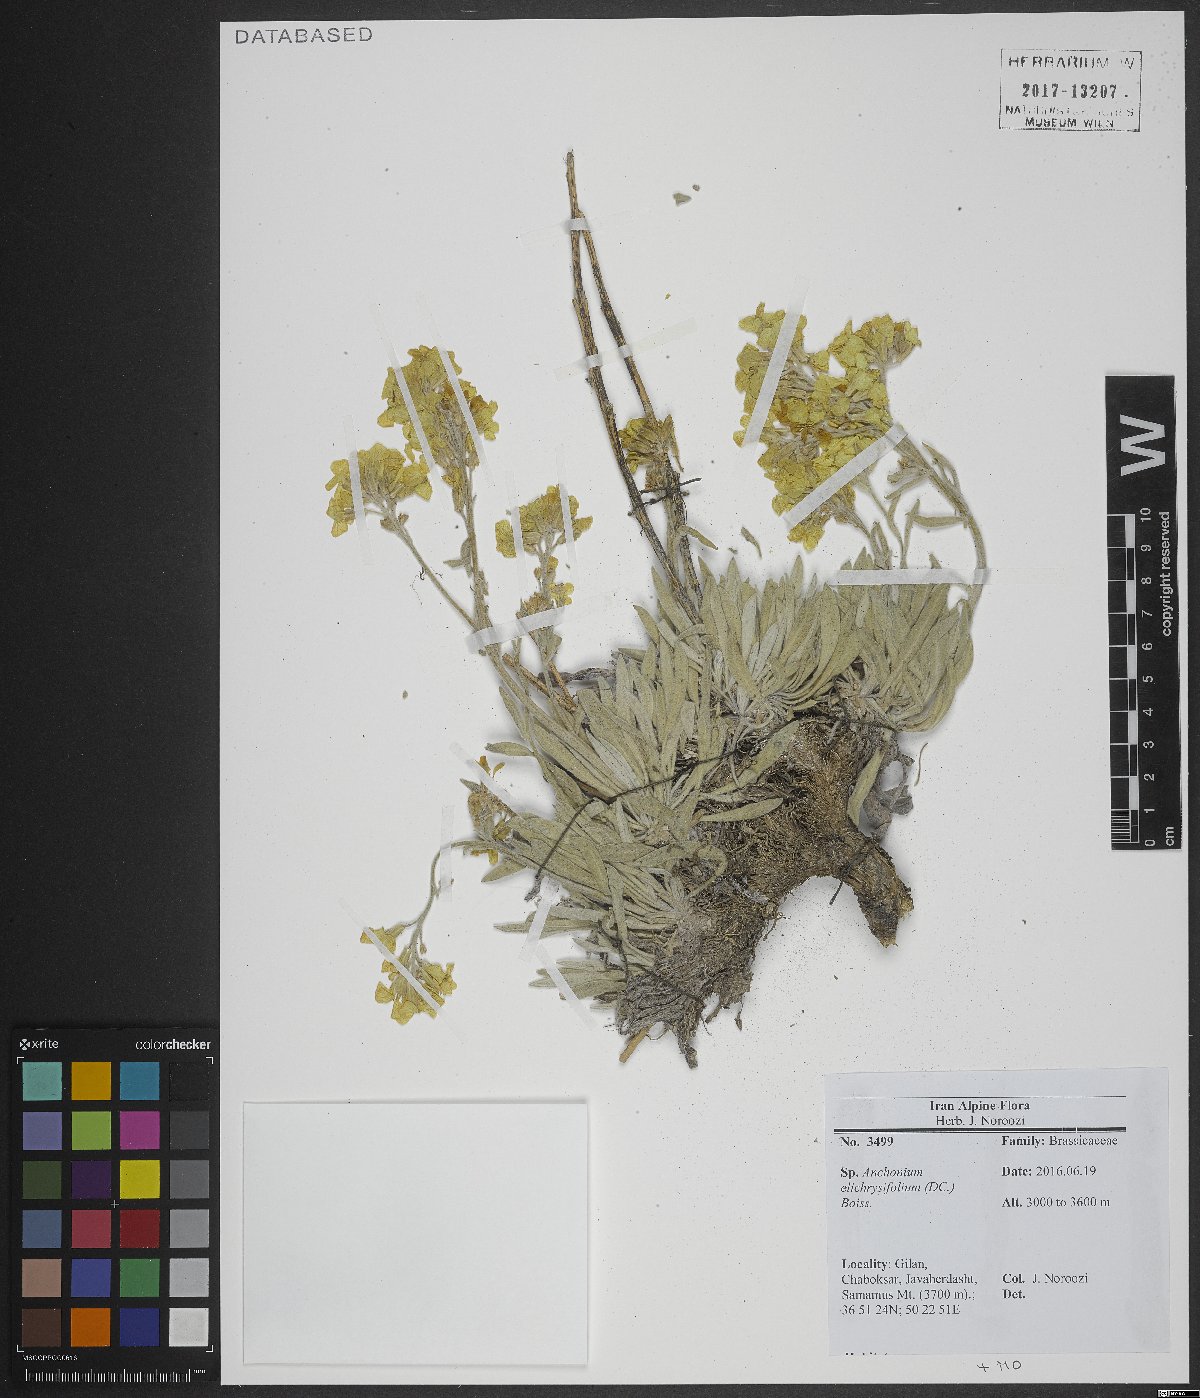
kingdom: Plantae
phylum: Tracheophyta
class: Magnoliopsida
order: Brassicales
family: Brassicaceae
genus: Anchonium
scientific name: Anchonium elichrysifolium
